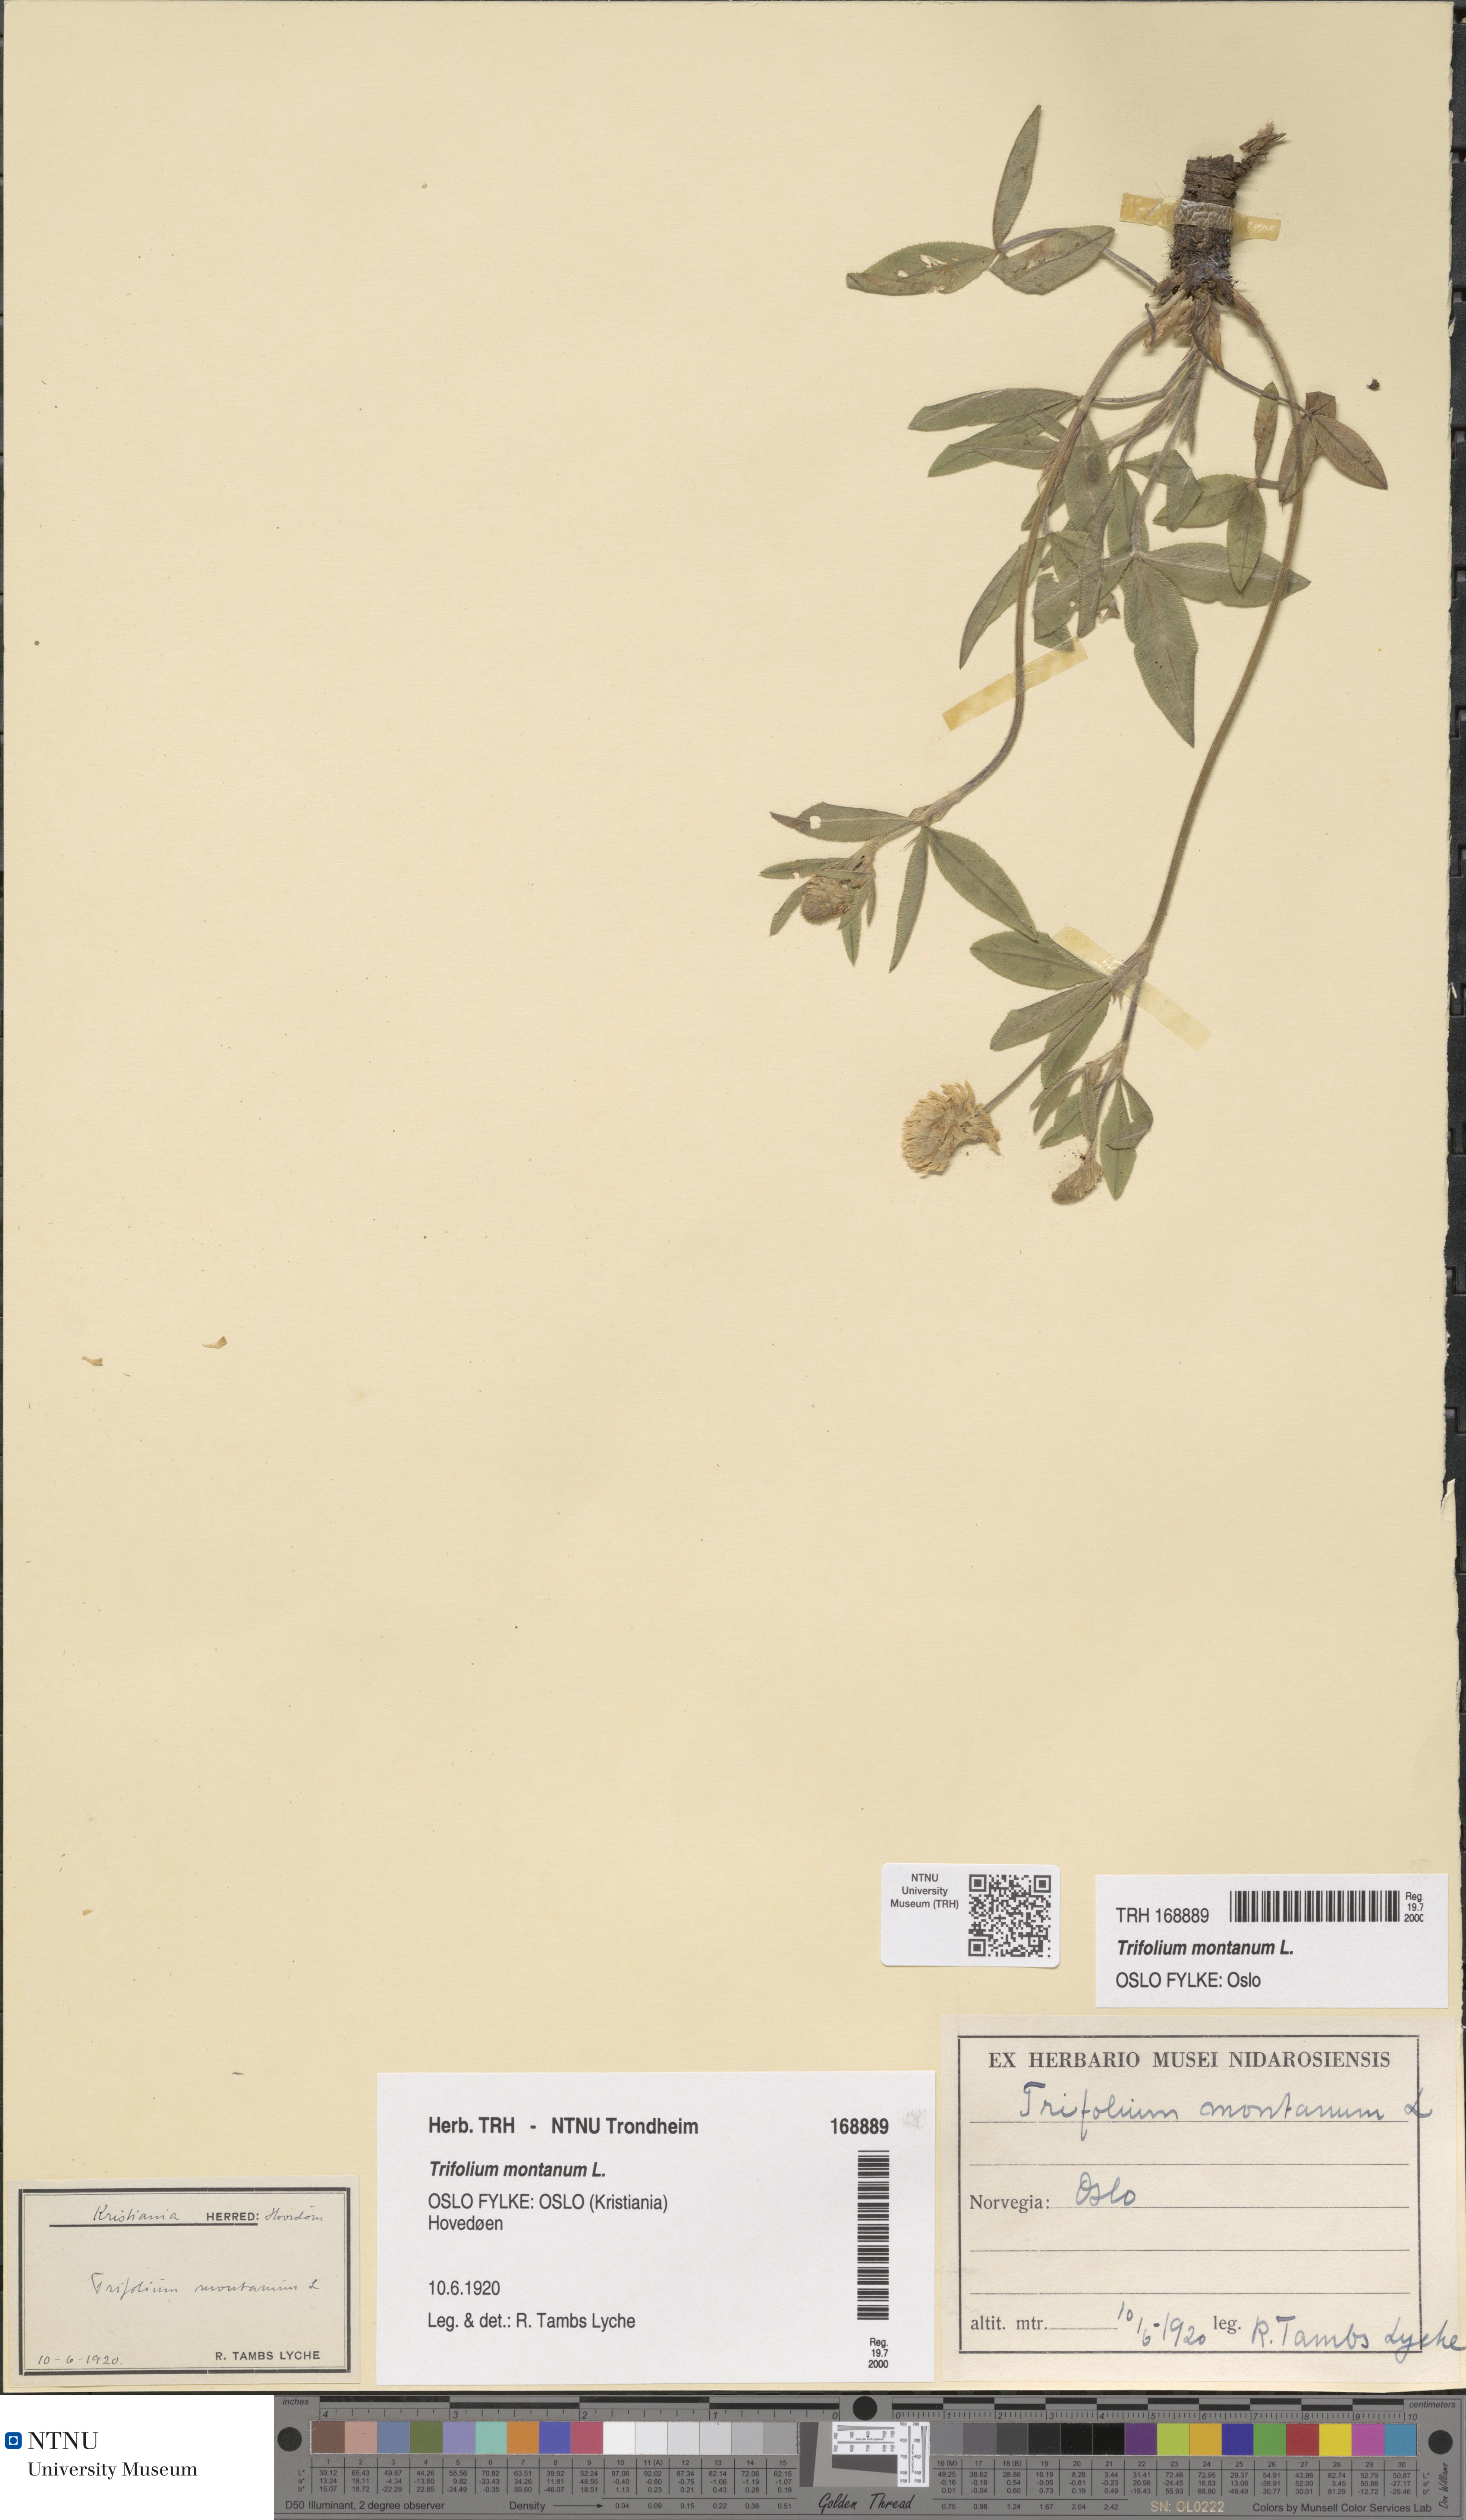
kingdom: Plantae
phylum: Tracheophyta
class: Magnoliopsida
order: Fabales
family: Fabaceae
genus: Trifolium
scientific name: Trifolium montanum
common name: Mountain clover
